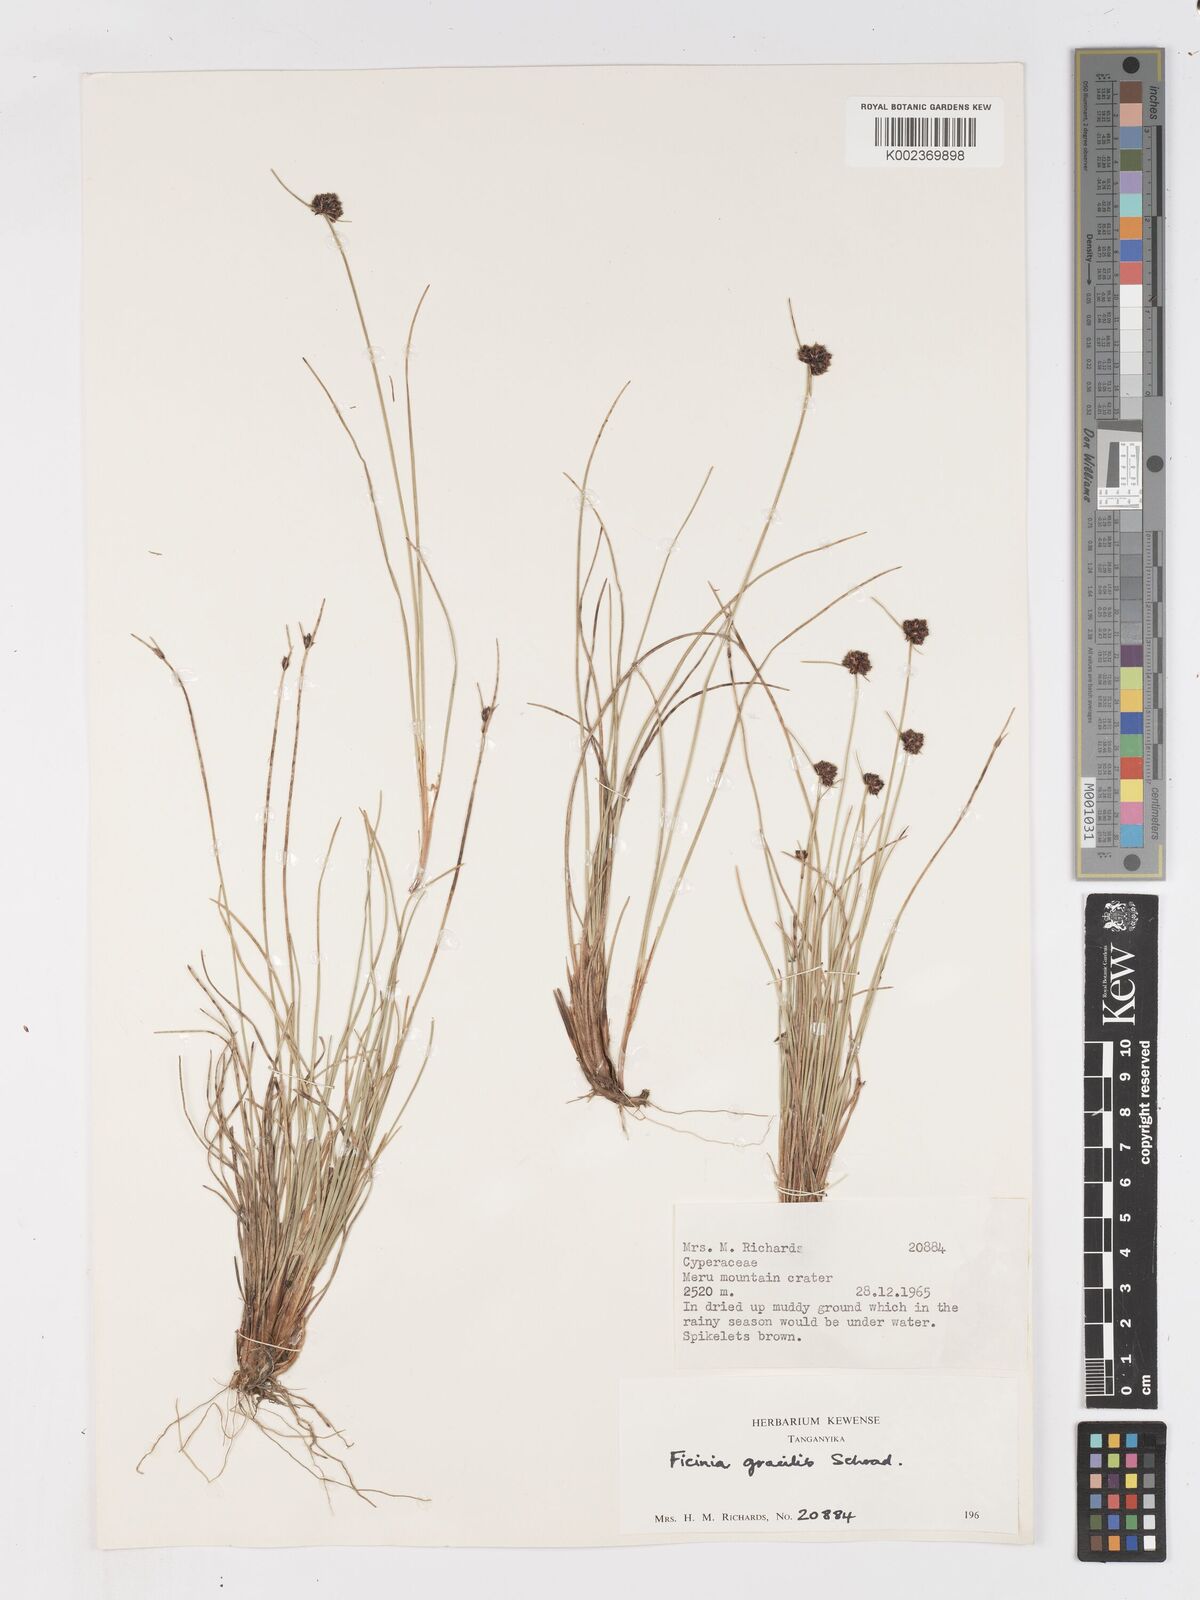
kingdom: Plantae
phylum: Tracheophyta
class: Liliopsida
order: Poales
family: Cyperaceae
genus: Ficinia
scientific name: Ficinia gracilis
